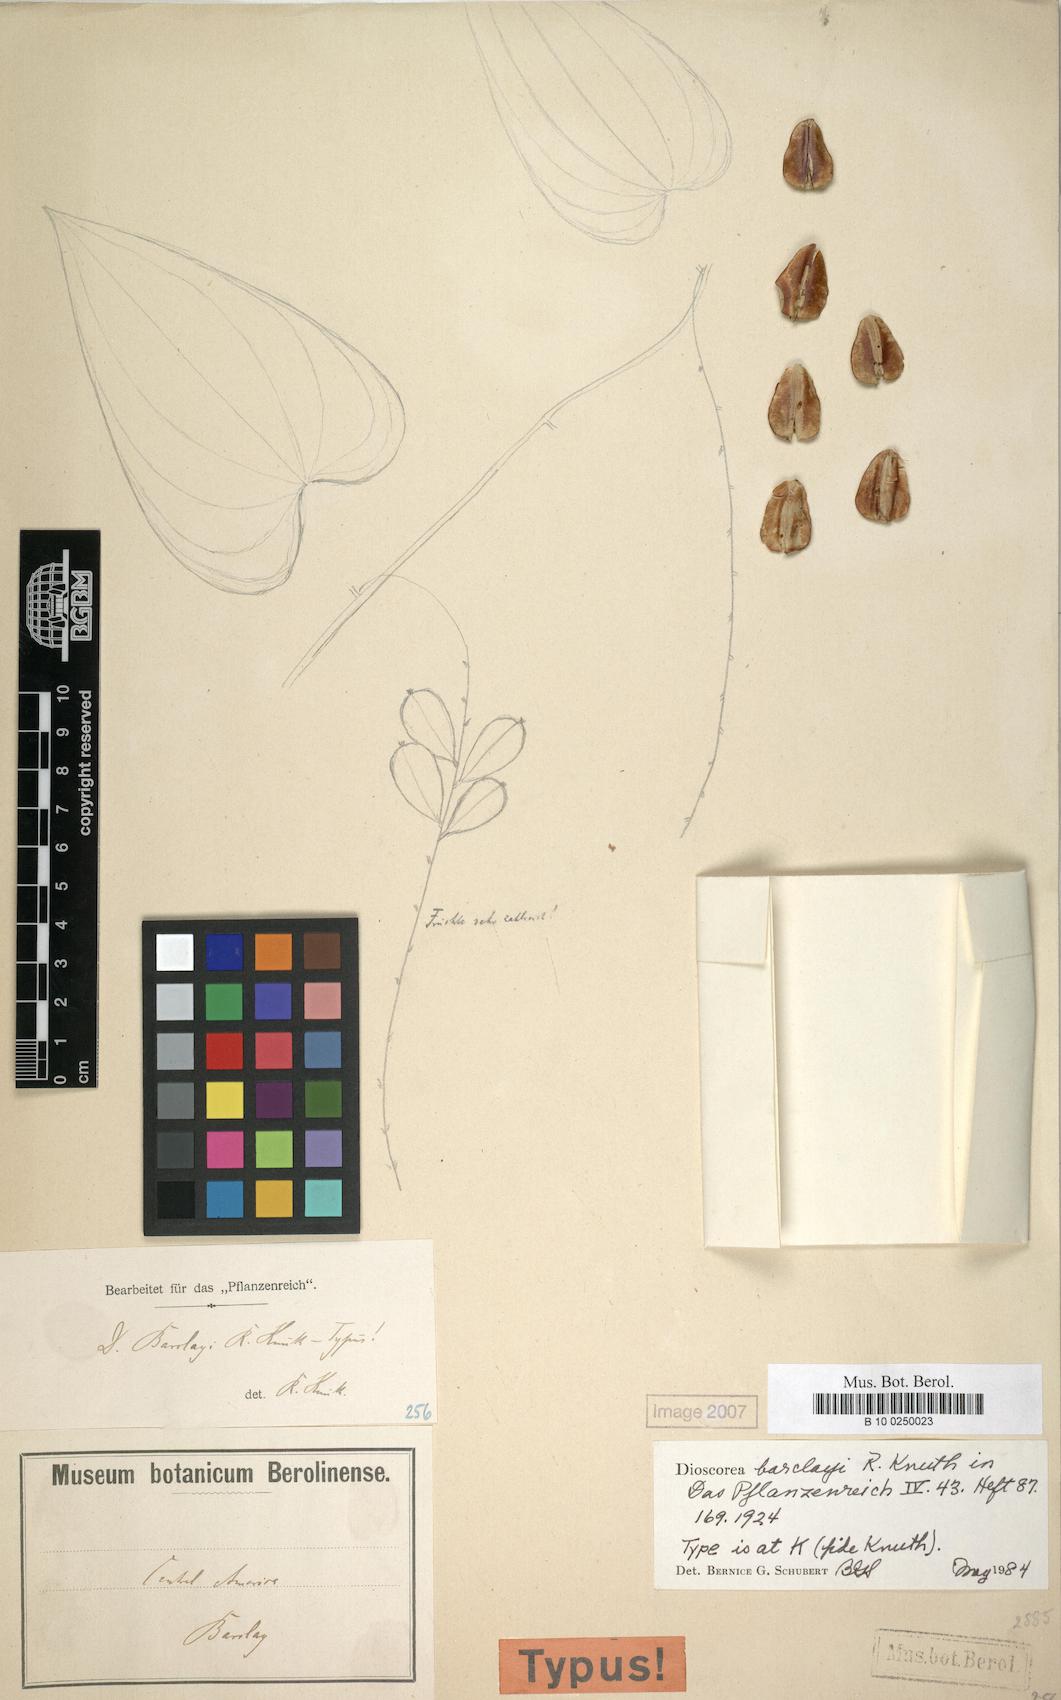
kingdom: Plantae
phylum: Tracheophyta
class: Liliopsida
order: Dioscoreales
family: Dioscoreaceae
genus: Dioscorea
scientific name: Dioscorea floribunda
